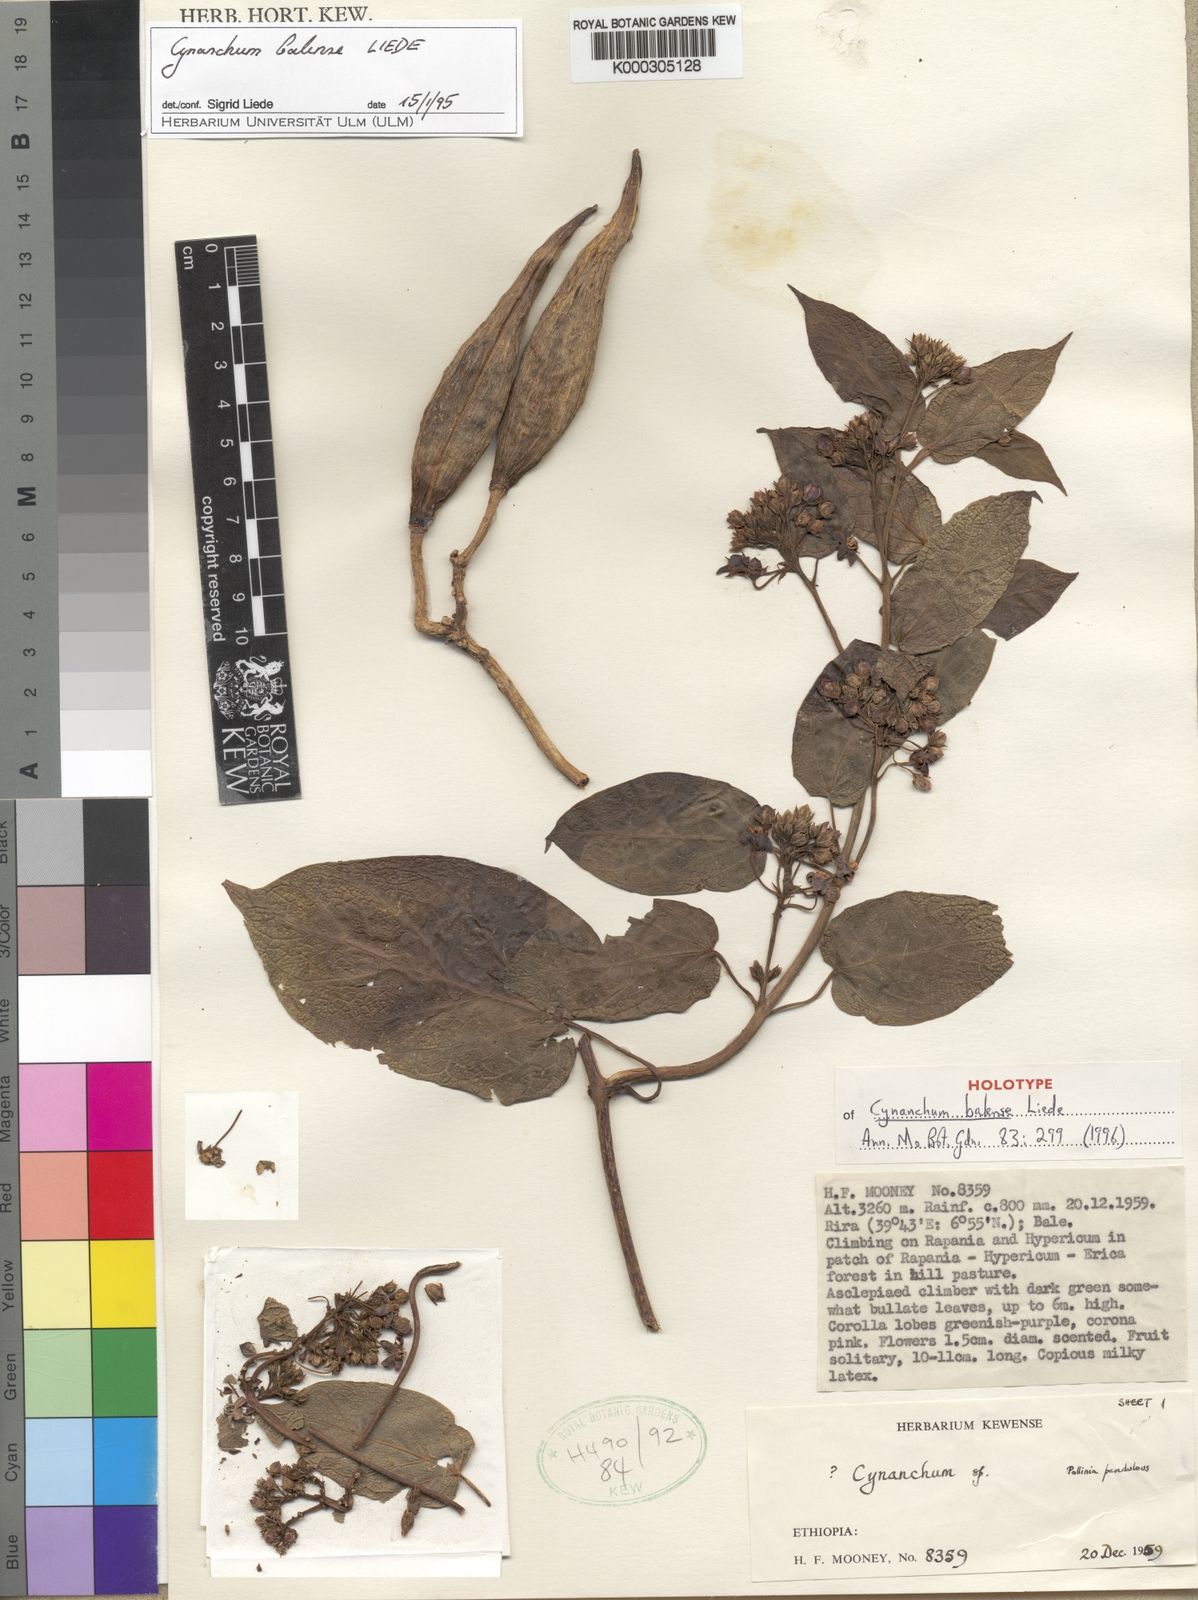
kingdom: Plantae
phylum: Tracheophyta
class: Magnoliopsida
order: Gentianales
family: Apocynaceae
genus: Cynanchum
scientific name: Cynanchum balense
